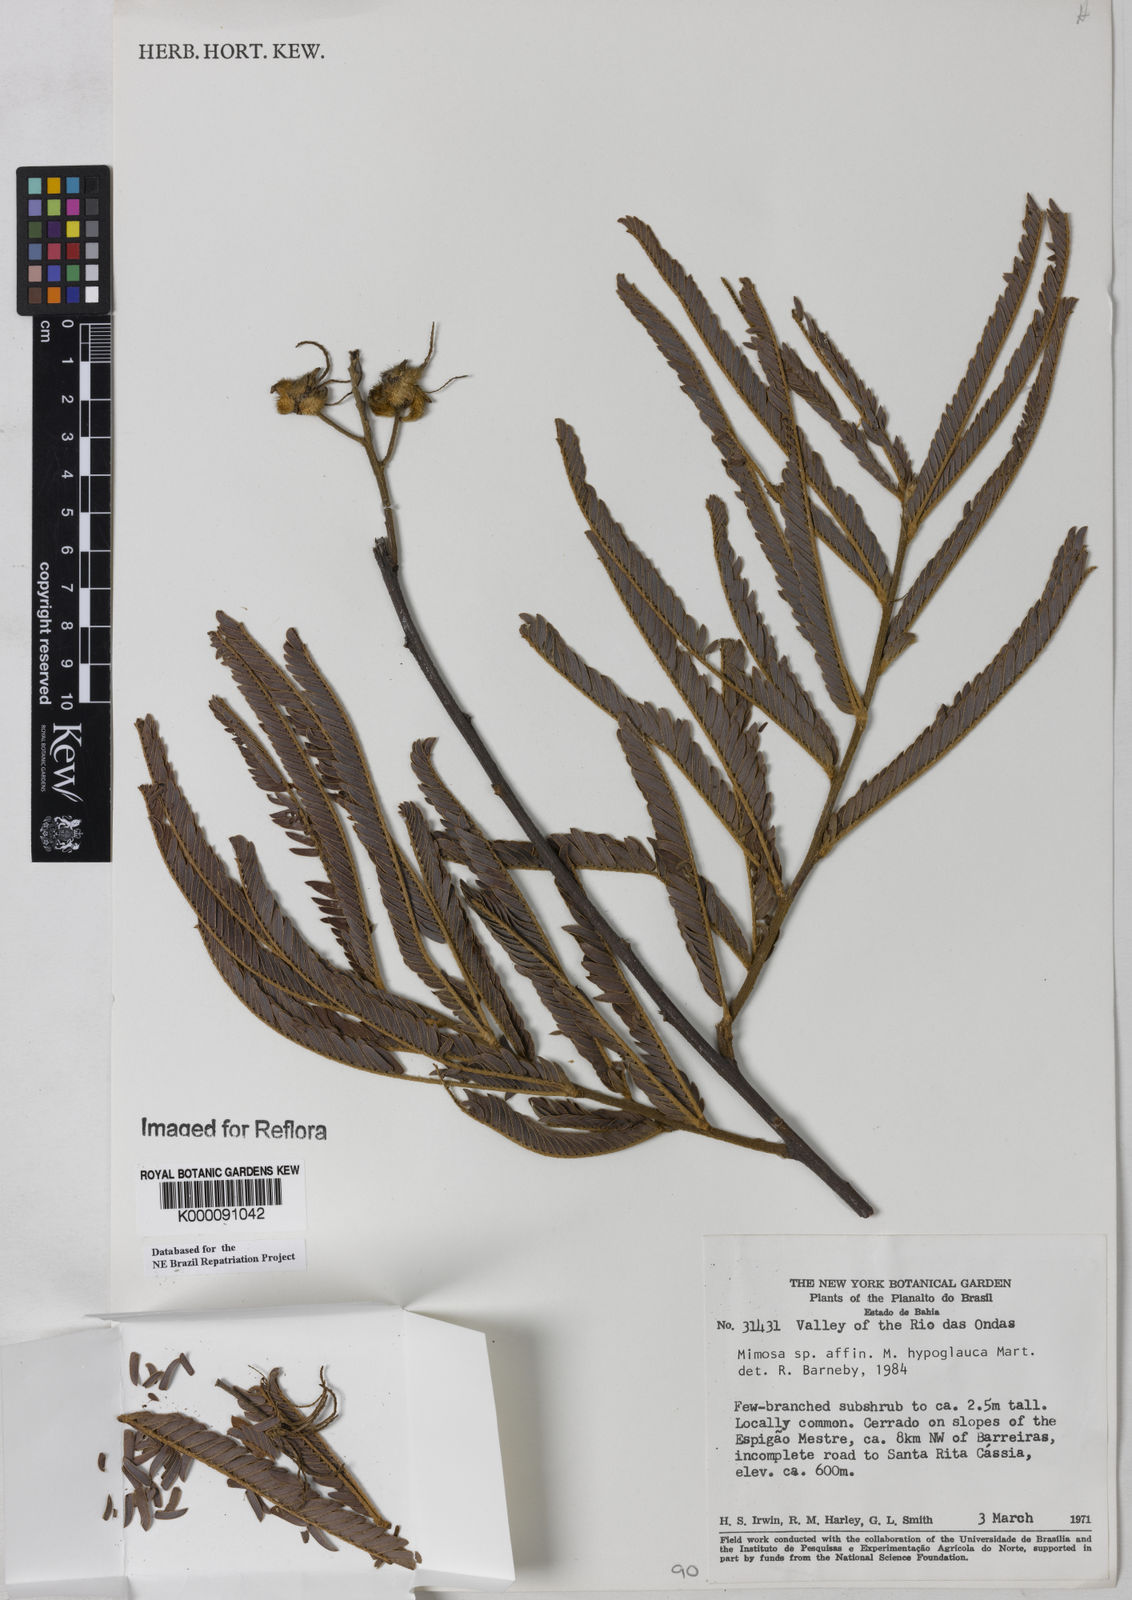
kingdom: Plantae
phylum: Tracheophyta
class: Magnoliopsida
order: Fabales
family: Fabaceae
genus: Mimosa
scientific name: Mimosa hypoglauca
